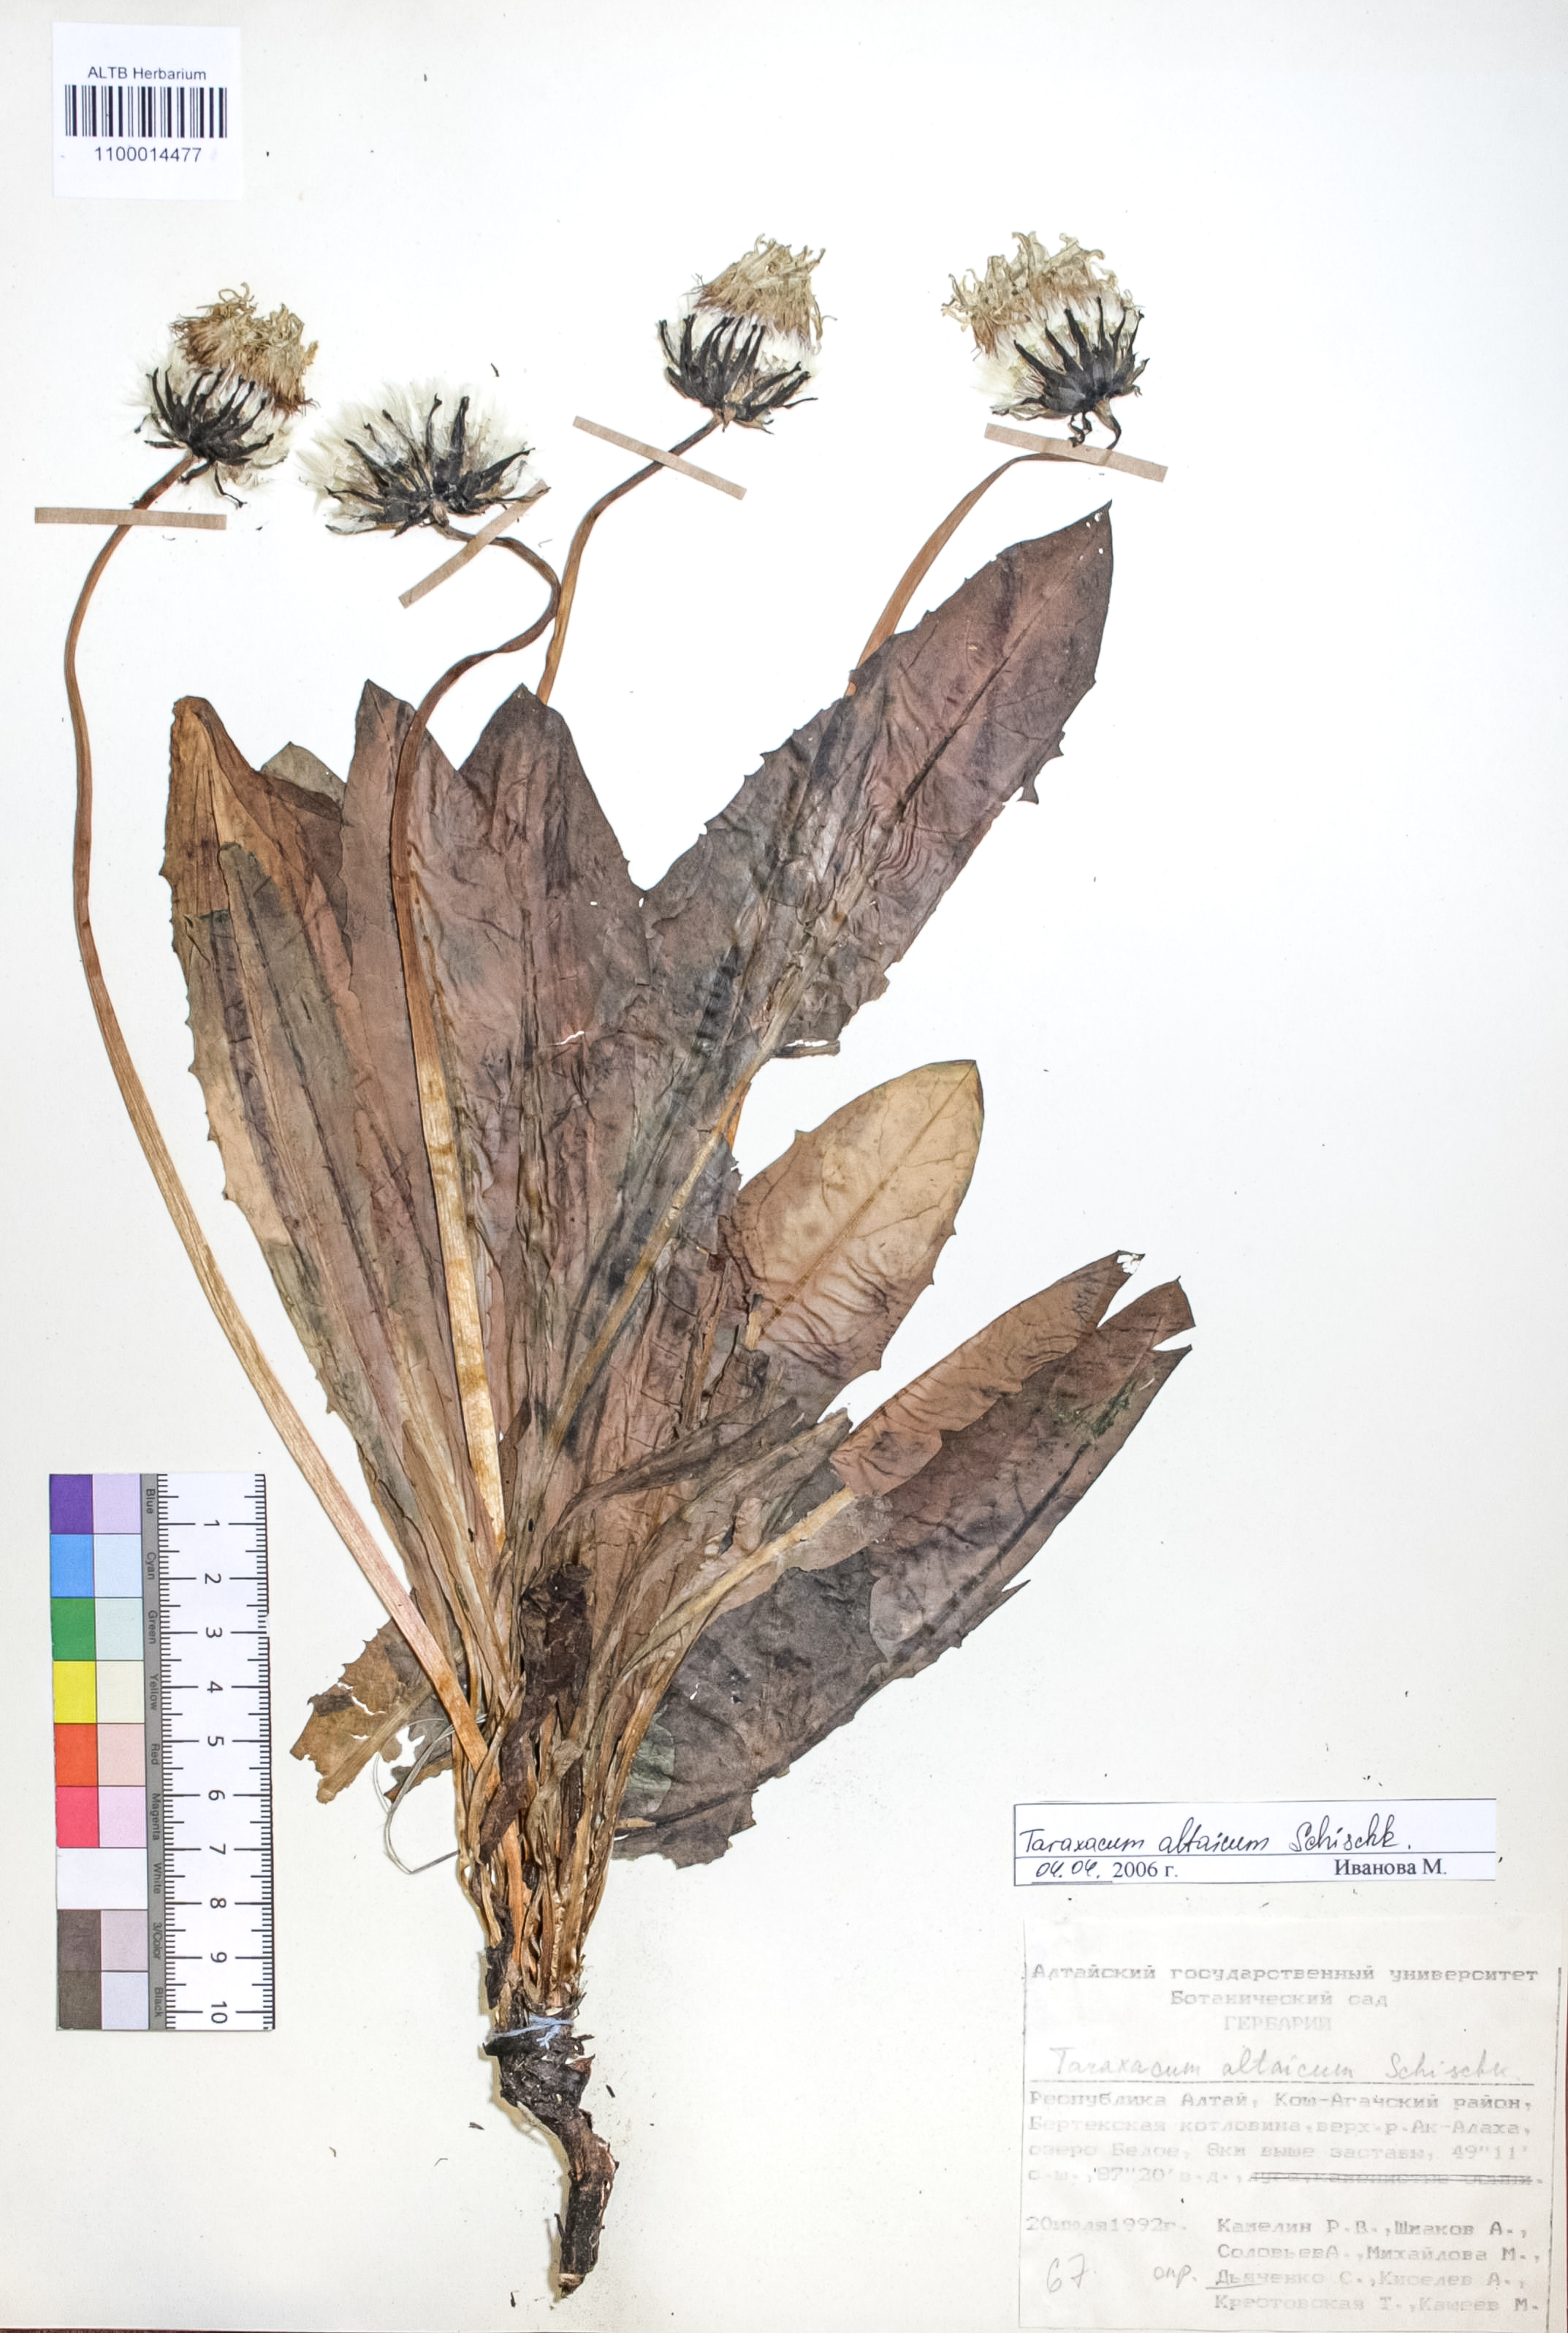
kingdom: Plantae
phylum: Tracheophyta
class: Magnoliopsida
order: Asterales
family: Asteraceae
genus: Taraxacum
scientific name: Taraxacum ceratophorum
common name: Horn-bearing dandelion
